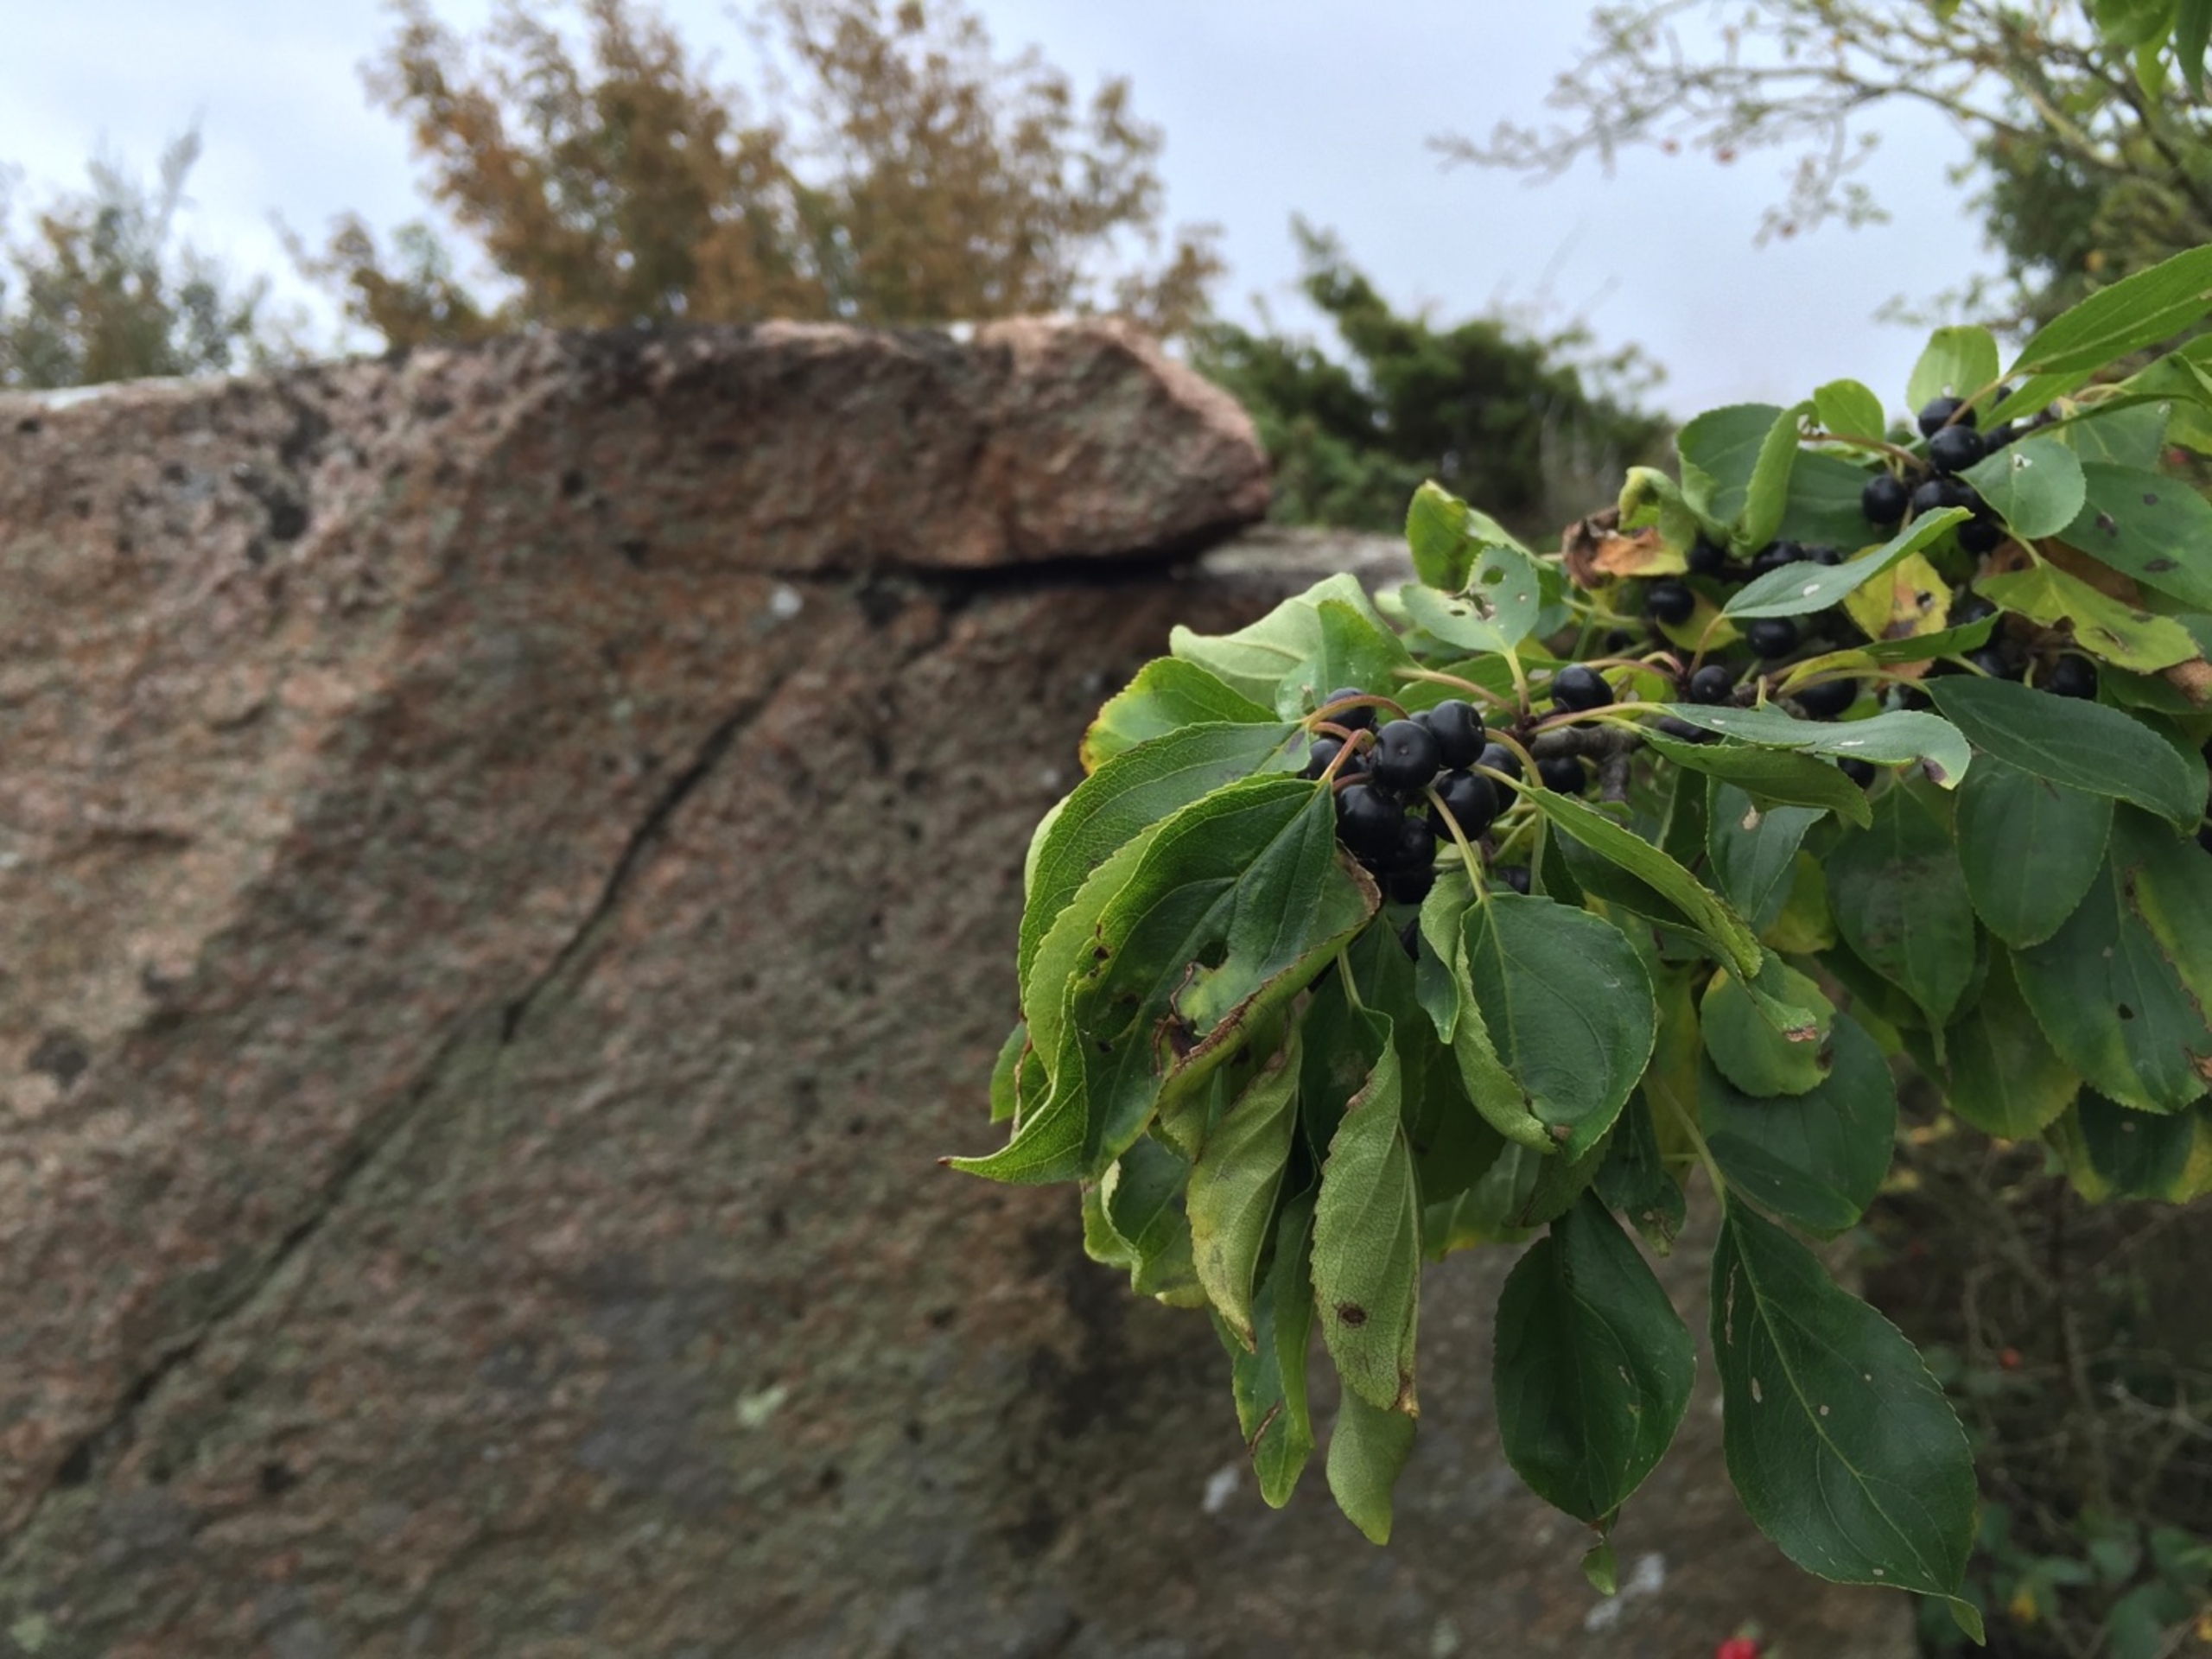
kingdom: Plantae
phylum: Tracheophyta
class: Magnoliopsida
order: Rosales
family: Rhamnaceae
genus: Rhamnus
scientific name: Rhamnus cathartica
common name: Vrietorn
